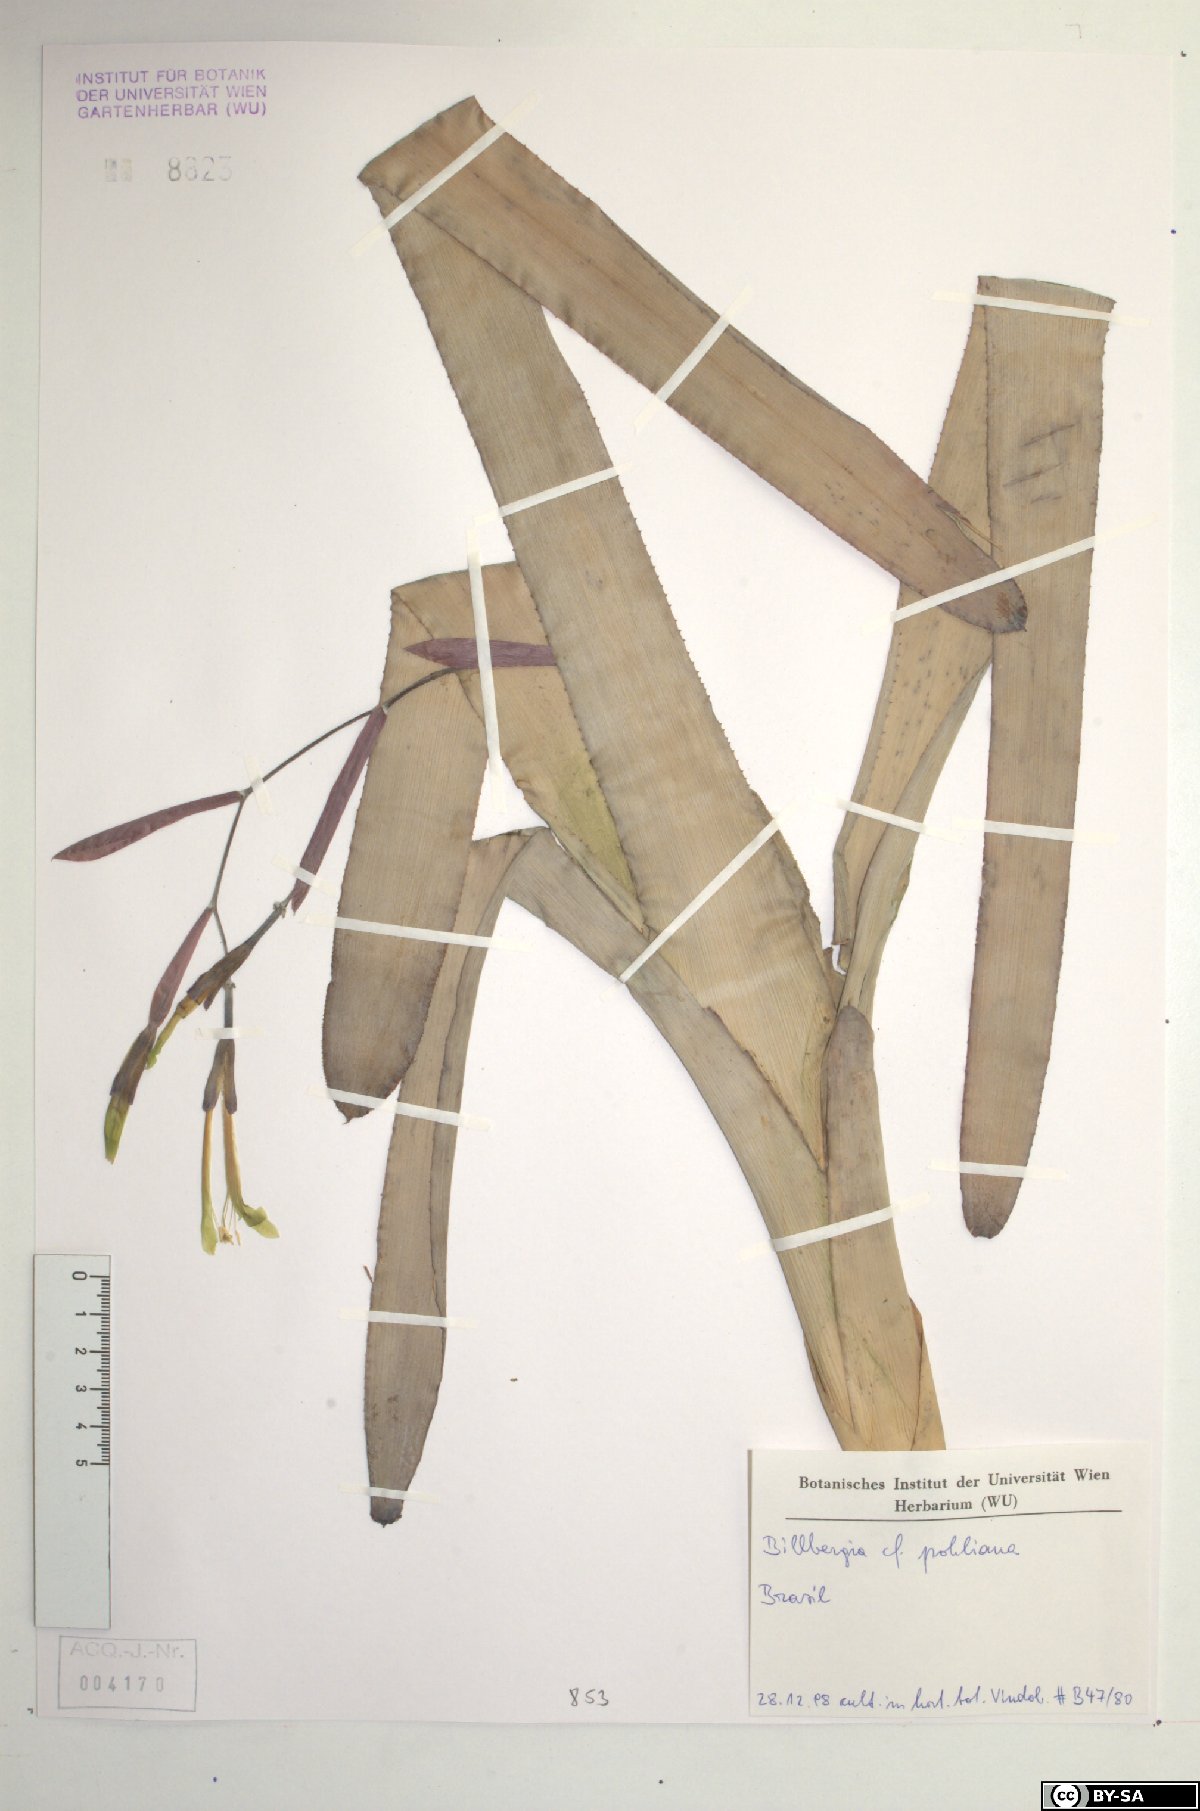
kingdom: Plantae
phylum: Tracheophyta
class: Liliopsida
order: Poales
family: Bromeliaceae
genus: Billbergia
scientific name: Billbergia pohliana
